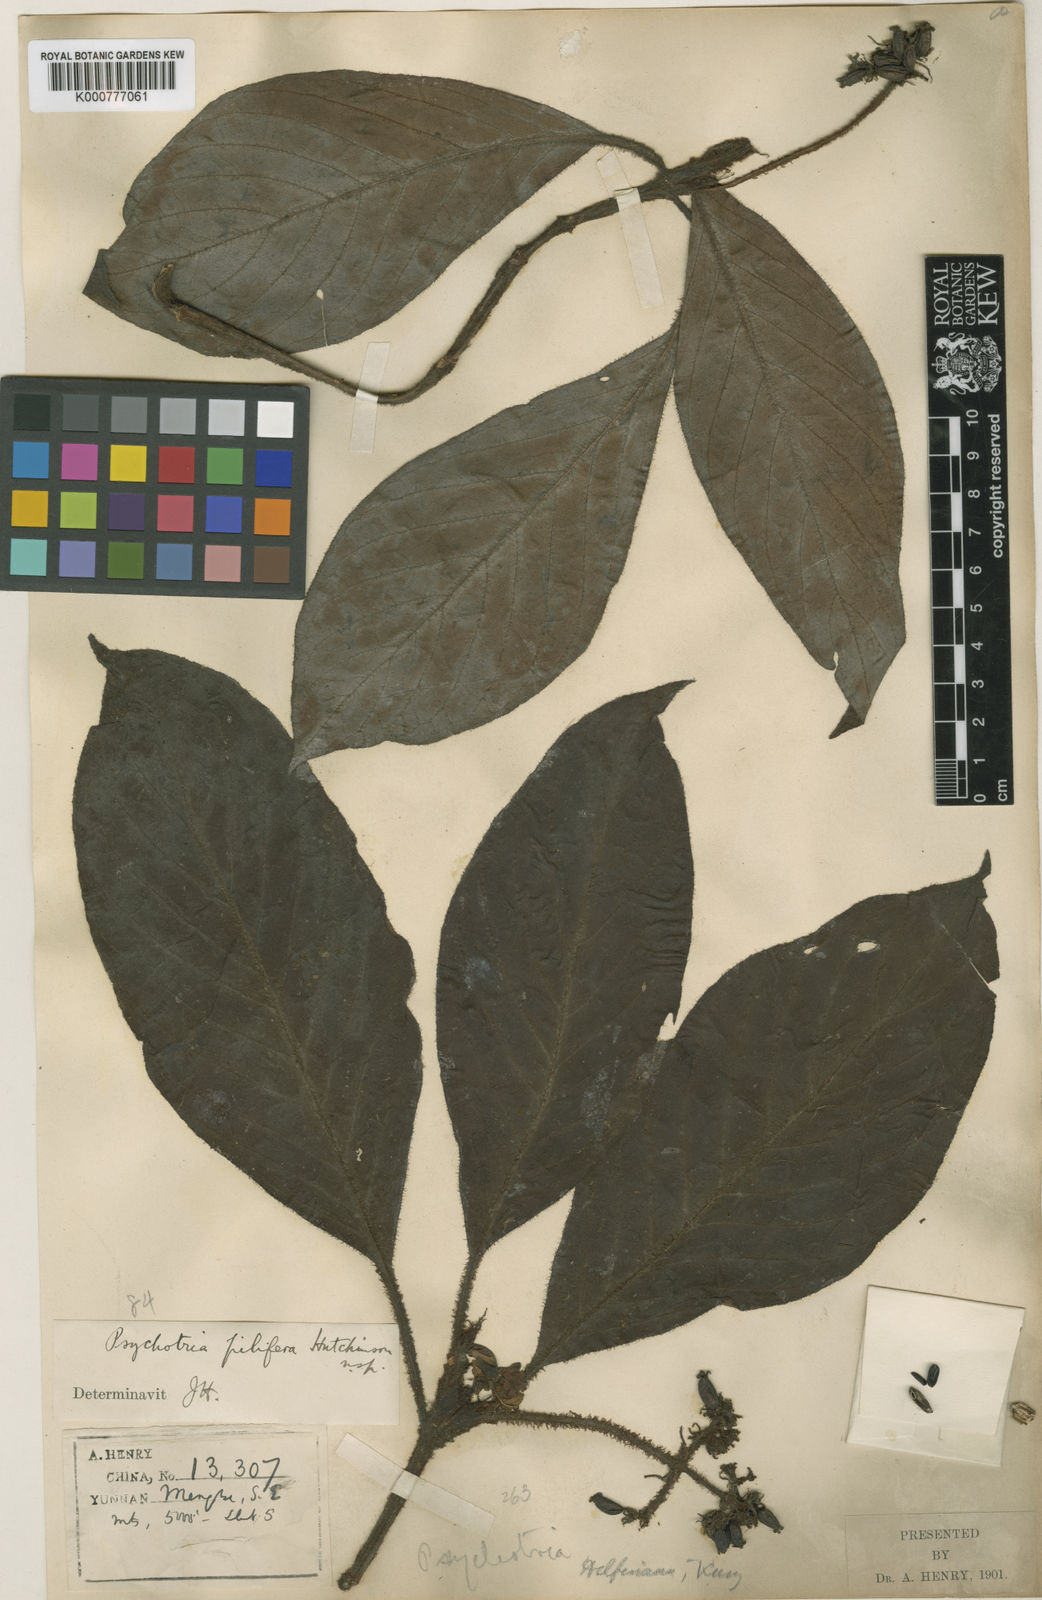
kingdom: Plantae
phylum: Tracheophyta
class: Magnoliopsida
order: Gentianales
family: Rubiaceae
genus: Psychotria
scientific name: Psychotria pilifera
